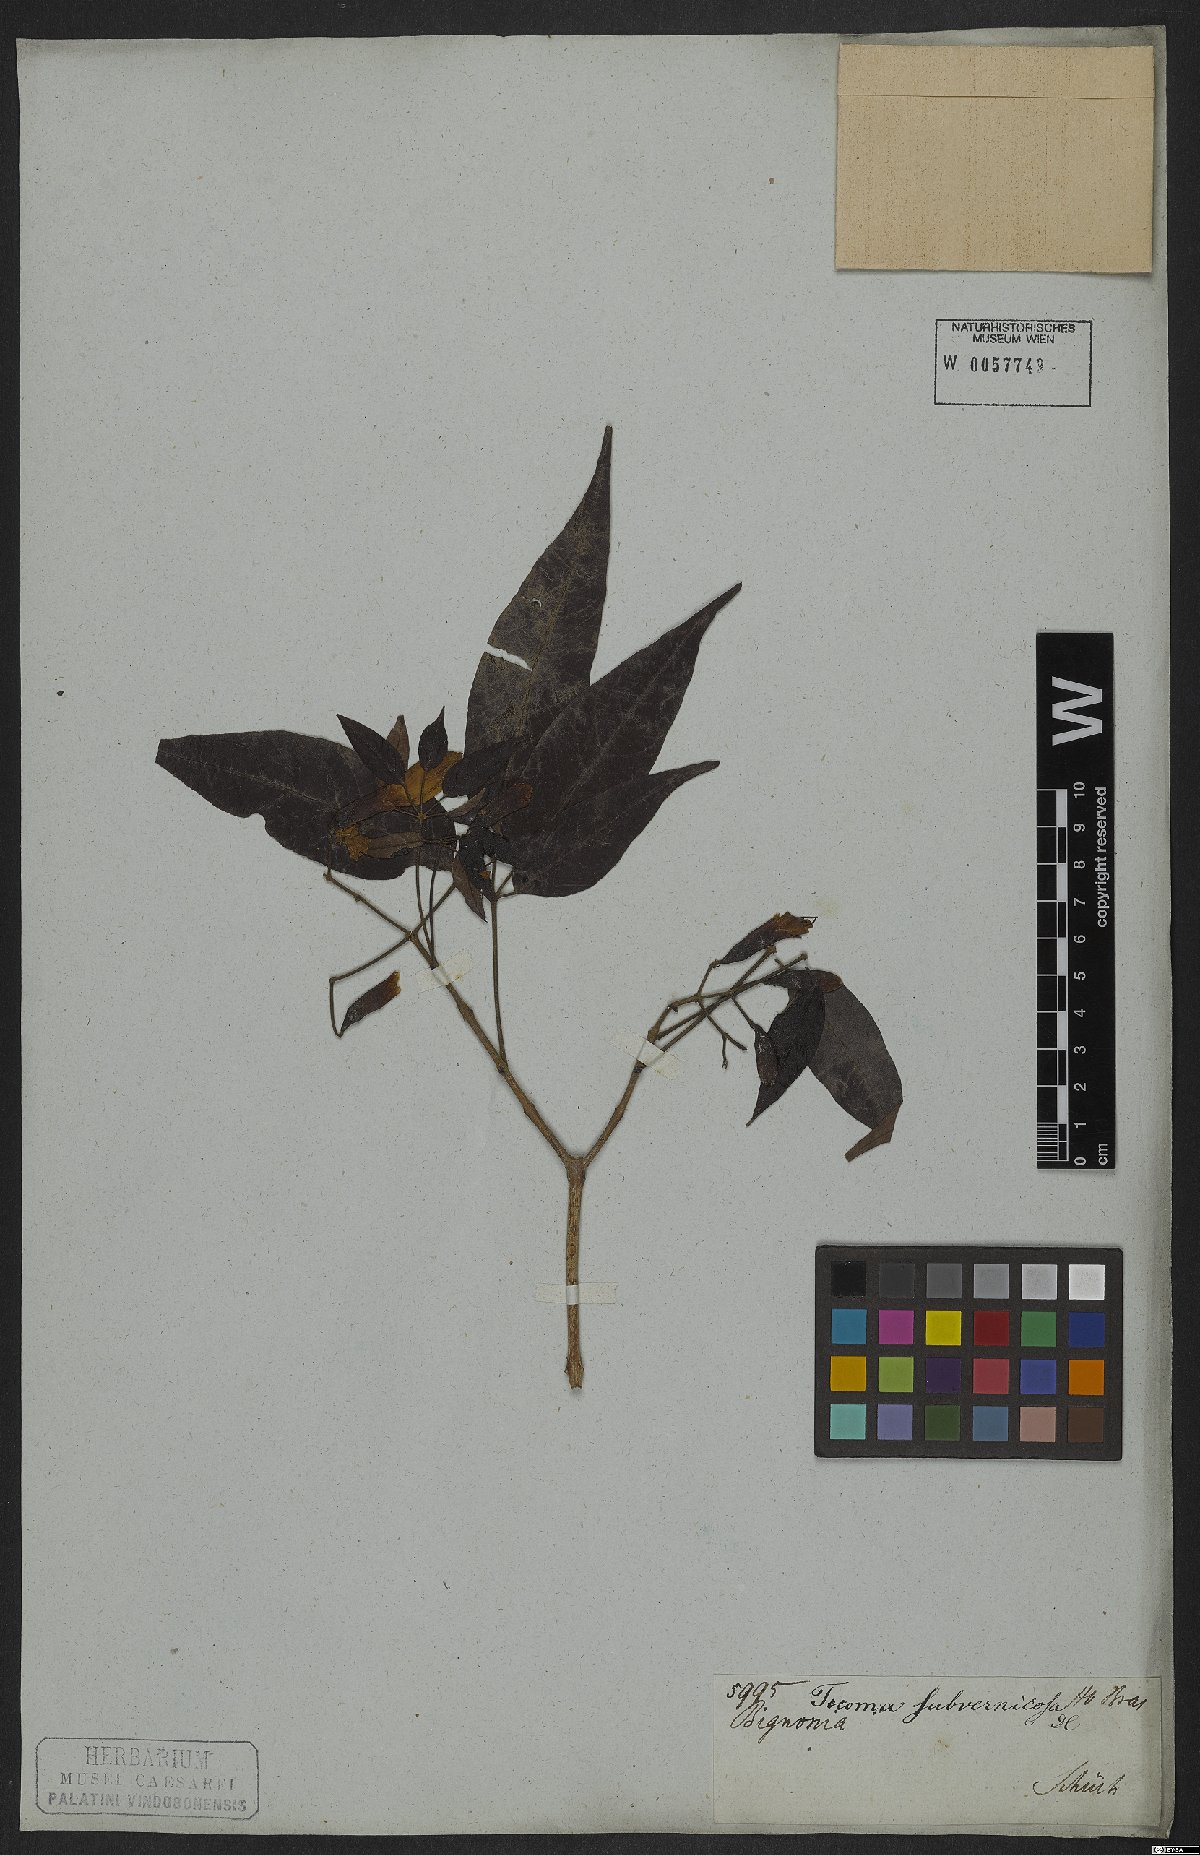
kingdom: Plantae
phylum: Tracheophyta
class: Magnoliopsida
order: Lamiales
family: Bignoniaceae
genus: Sparattosperma
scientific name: Sparattosperma leucanthum
